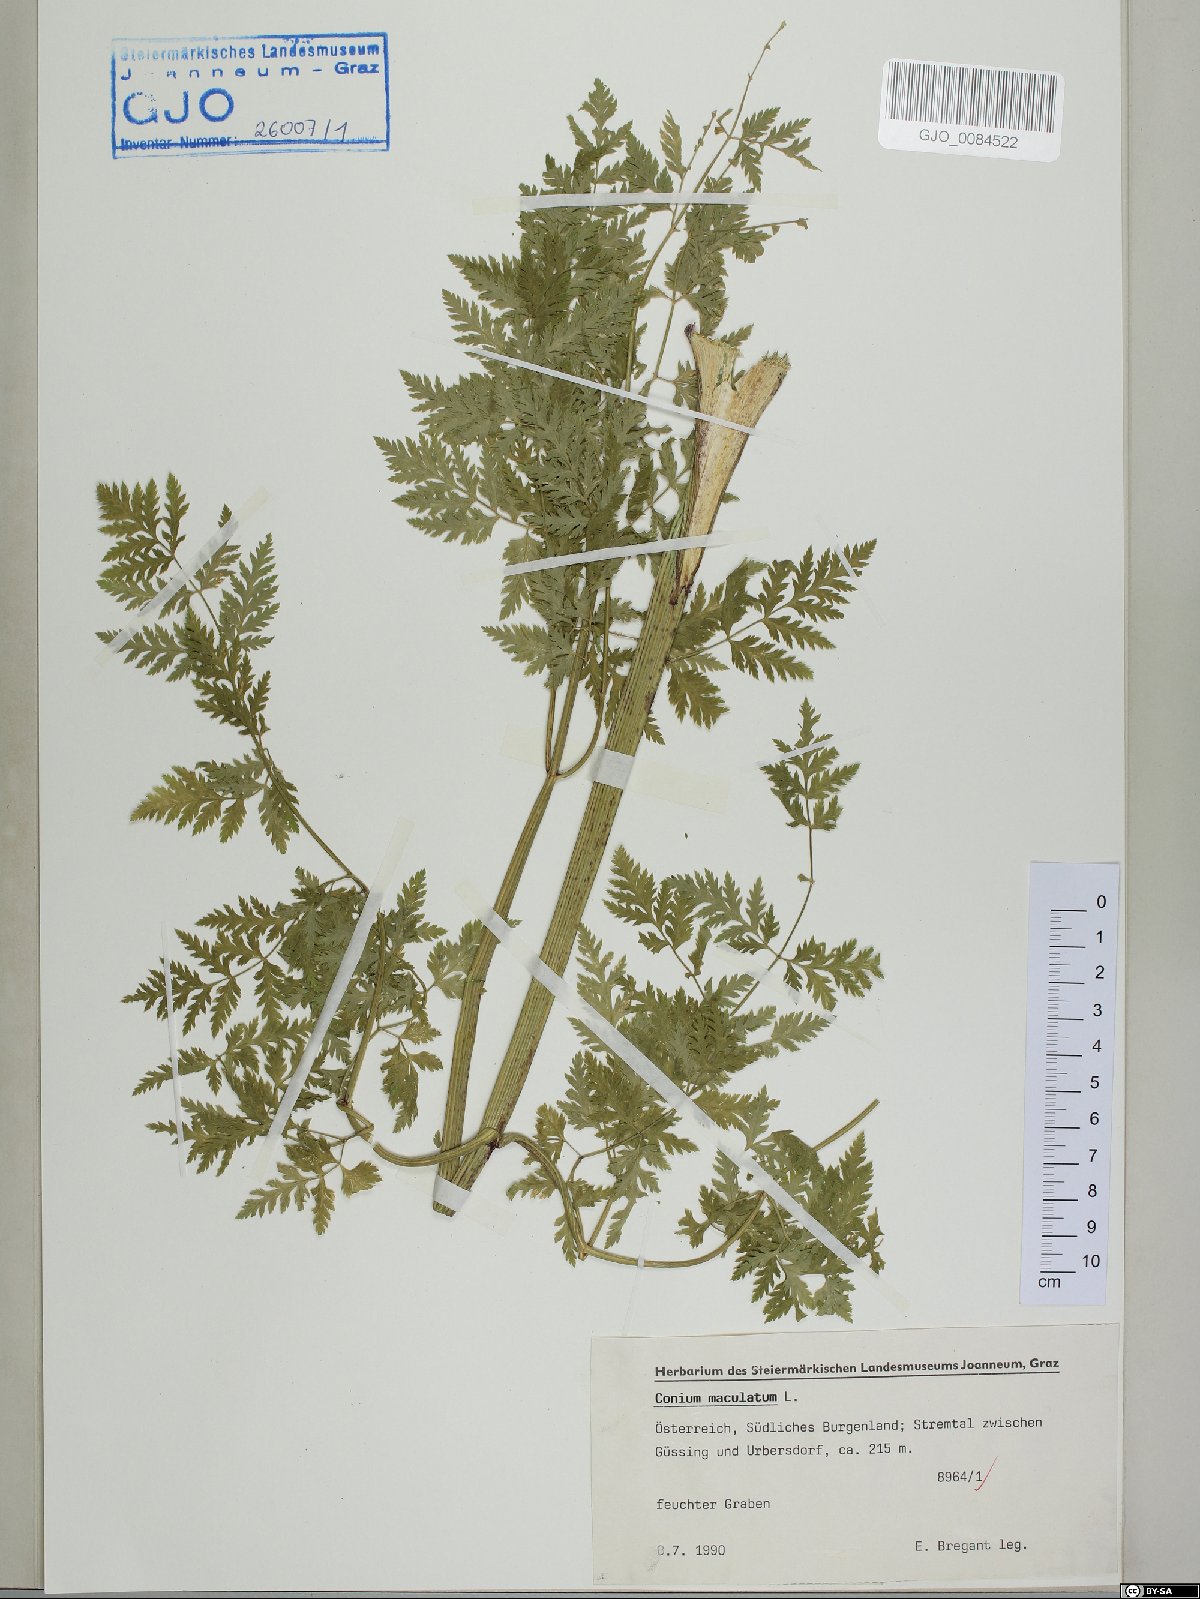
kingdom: Plantae
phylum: Tracheophyta
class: Magnoliopsida
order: Apiales
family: Apiaceae
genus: Conium
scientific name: Conium maculatum
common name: Hemlock
